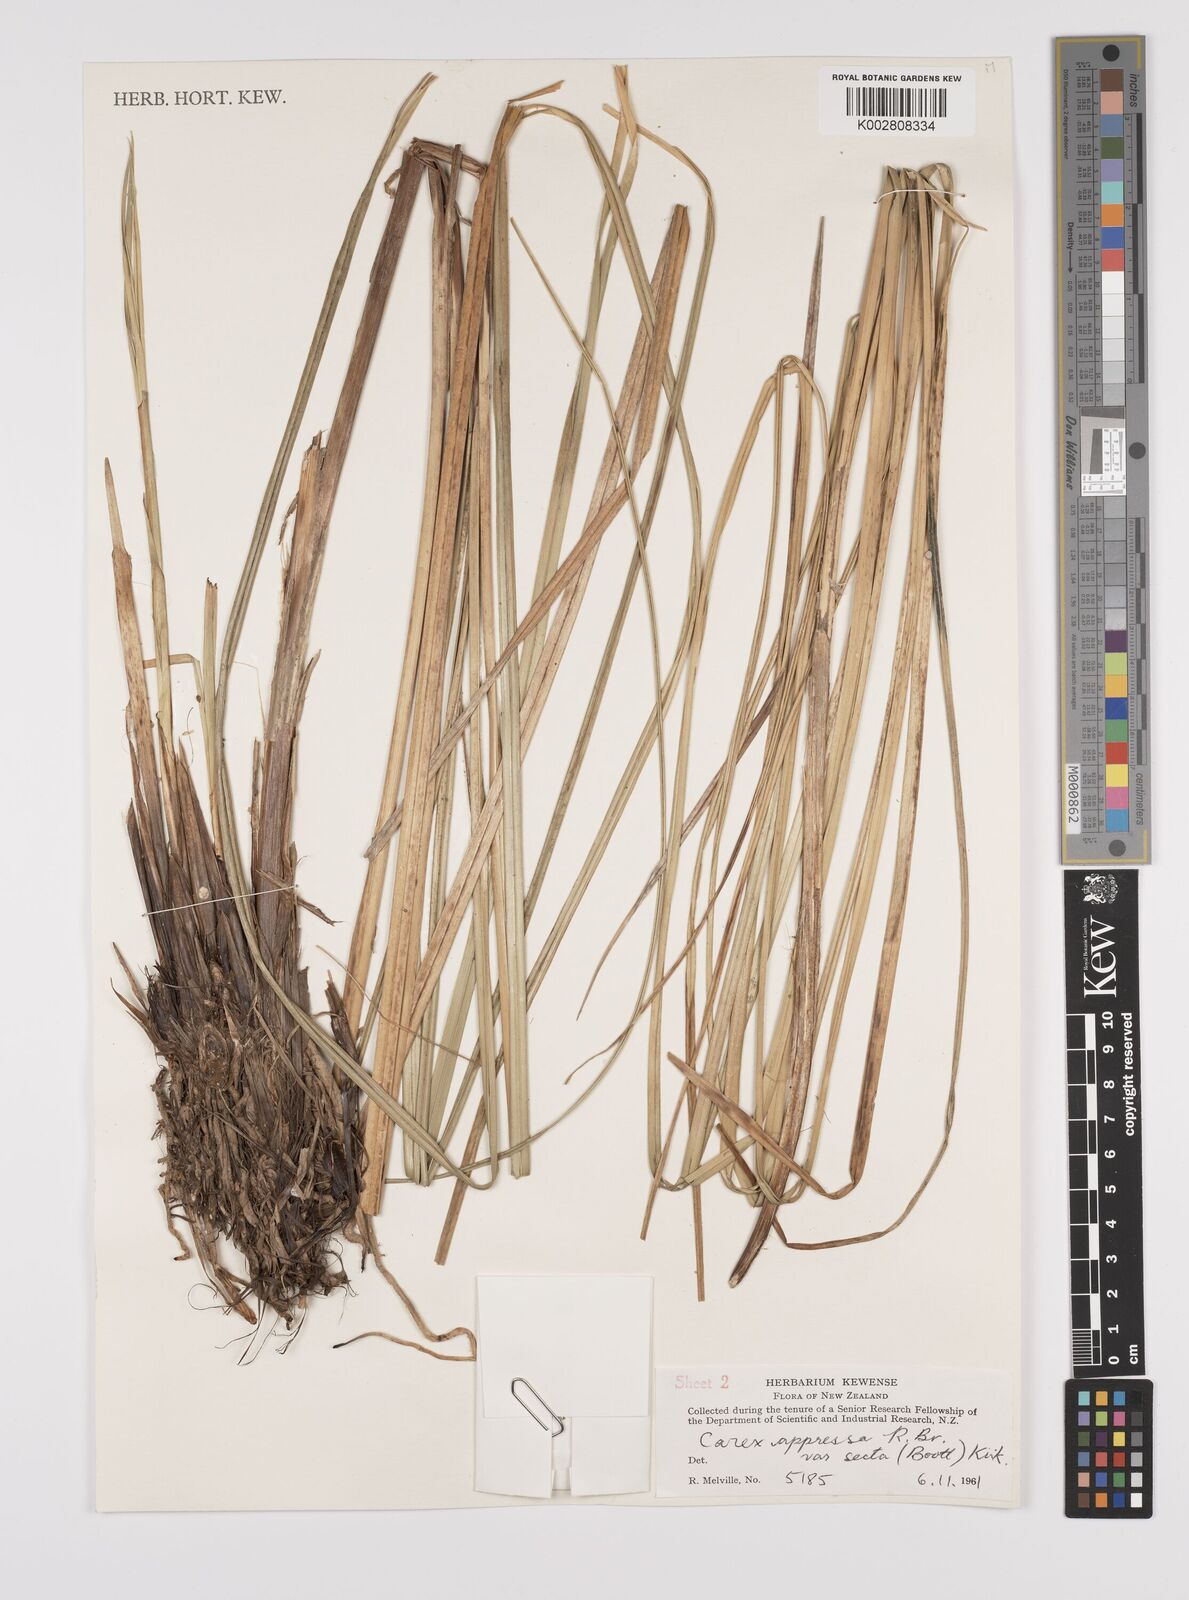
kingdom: Plantae
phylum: Tracheophyta
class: Liliopsida
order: Poales
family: Cyperaceae
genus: Carex
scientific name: Carex appressa
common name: Tussock sedge
